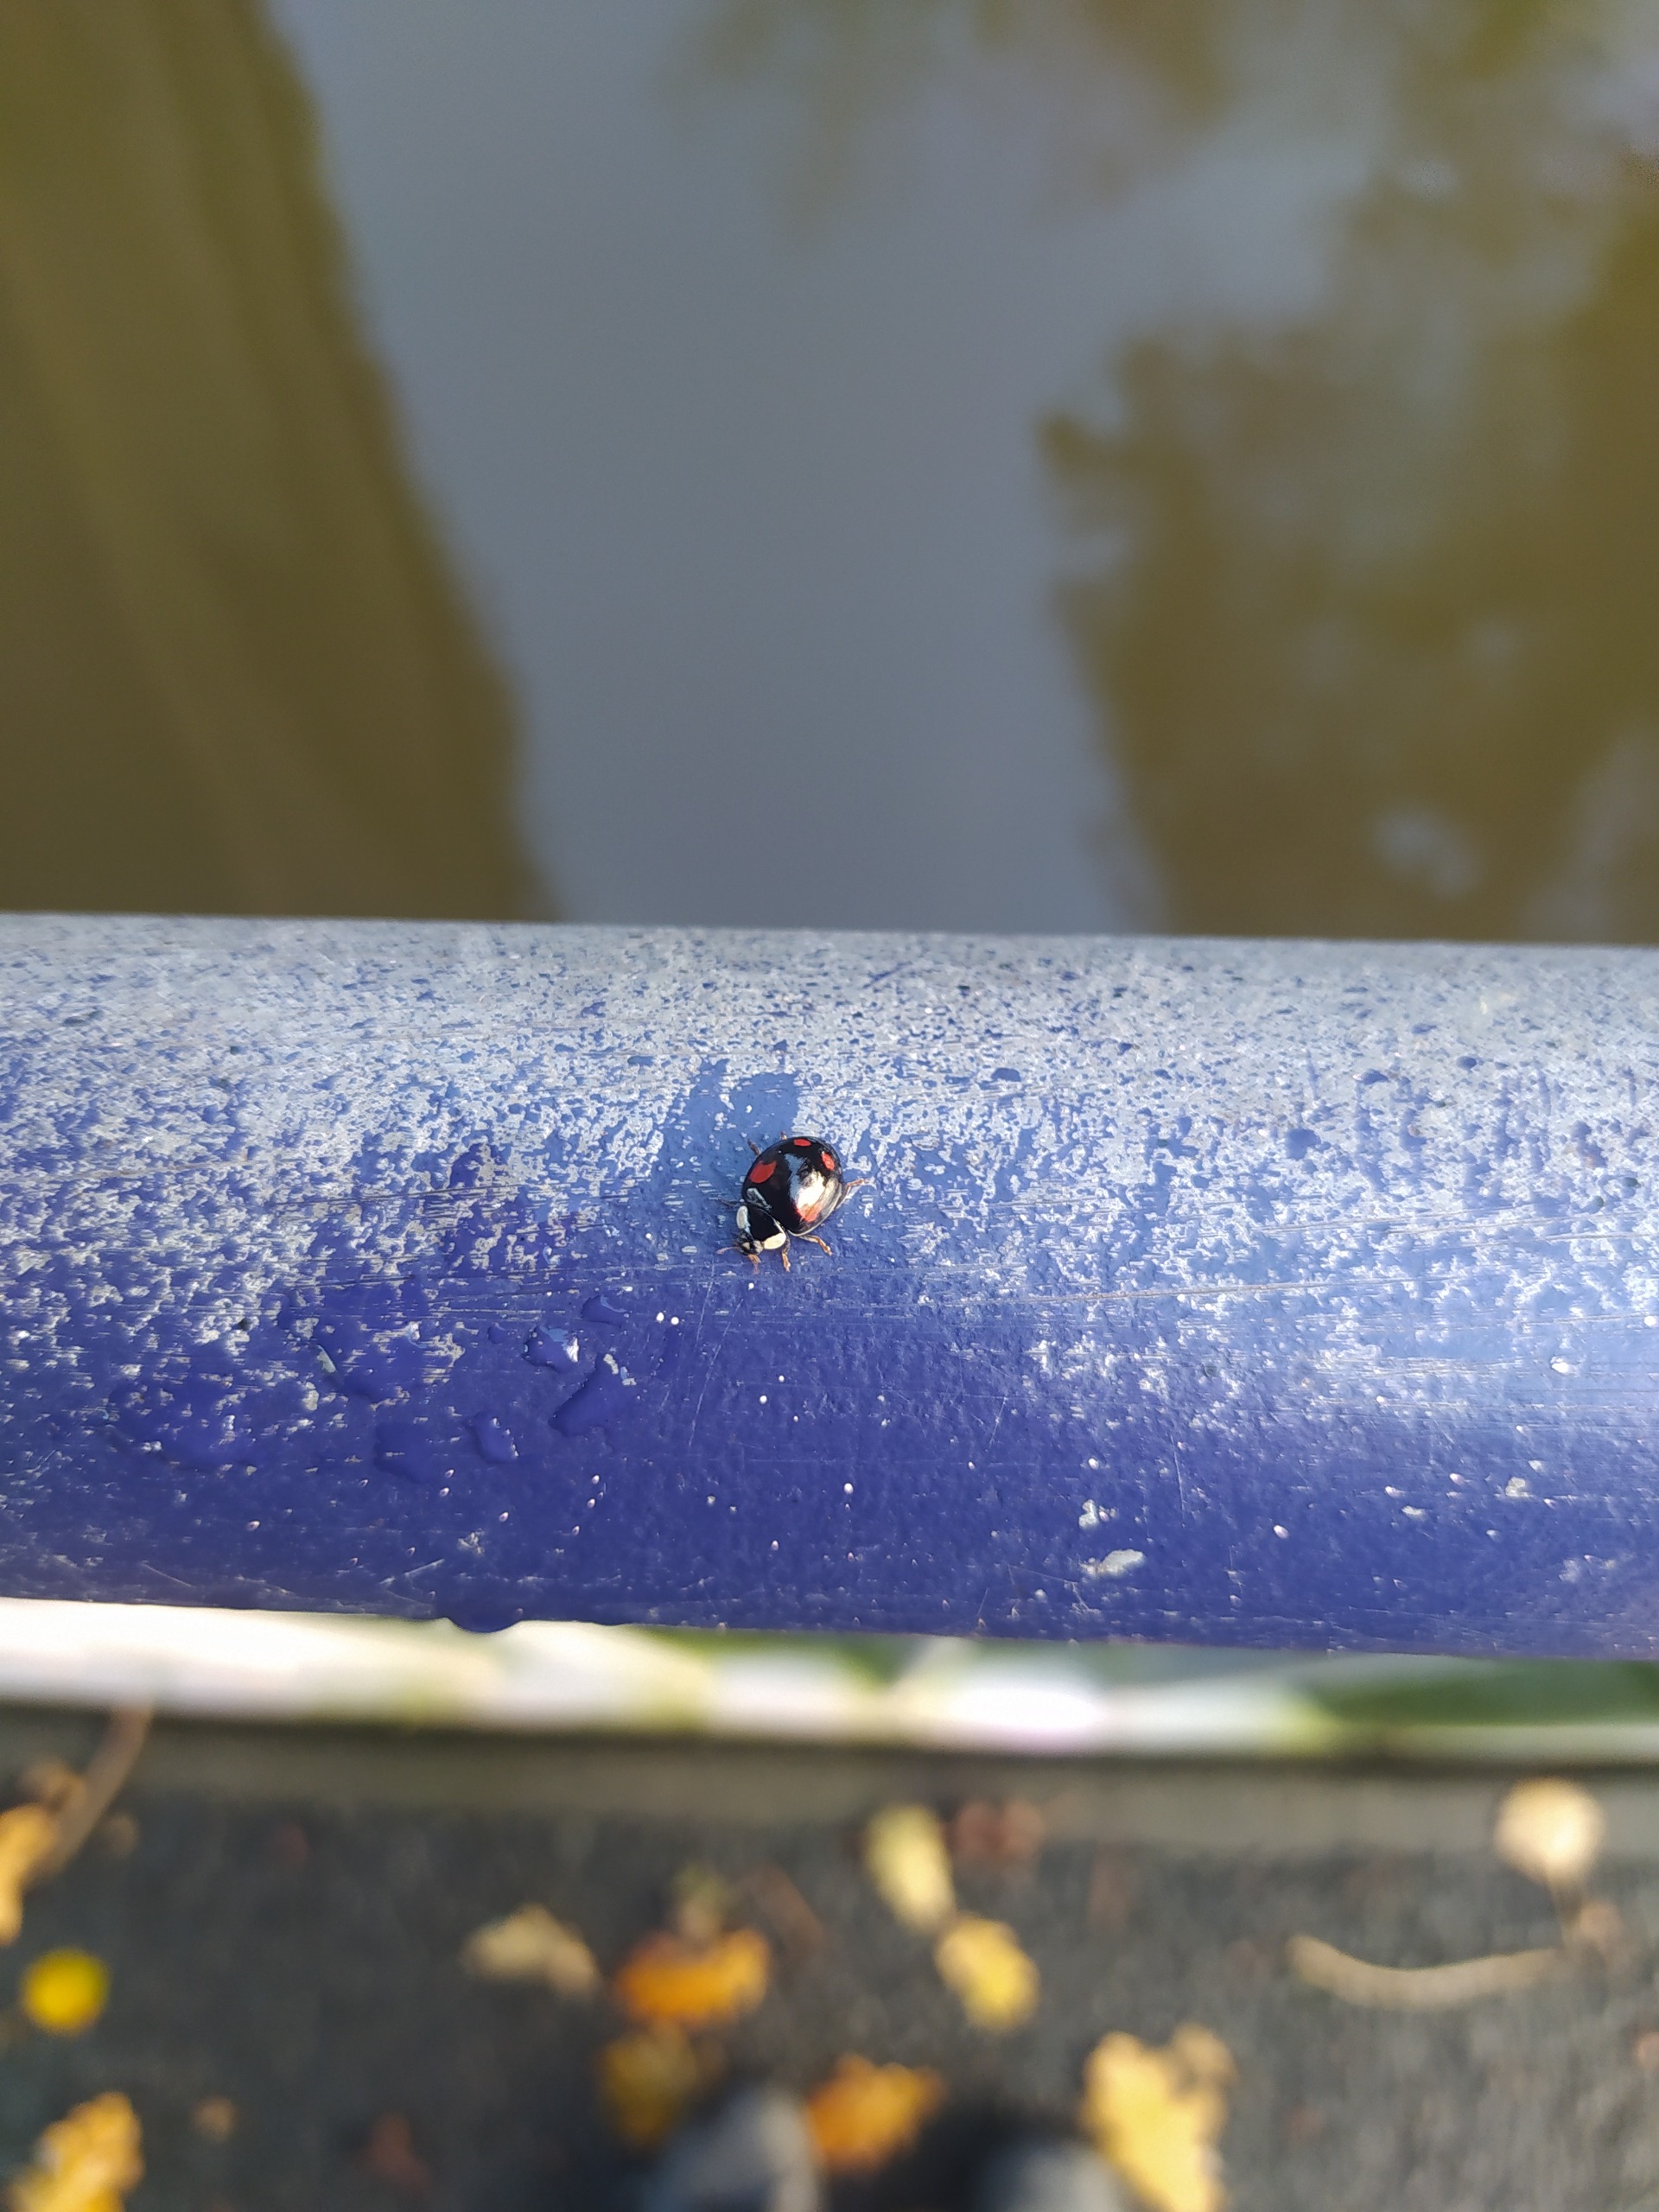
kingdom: Animalia
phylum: Arthropoda
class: Insecta
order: Coleoptera
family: Coccinellidae
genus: Harmonia
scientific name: Harmonia axyridis
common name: Harlekinmariehøne
